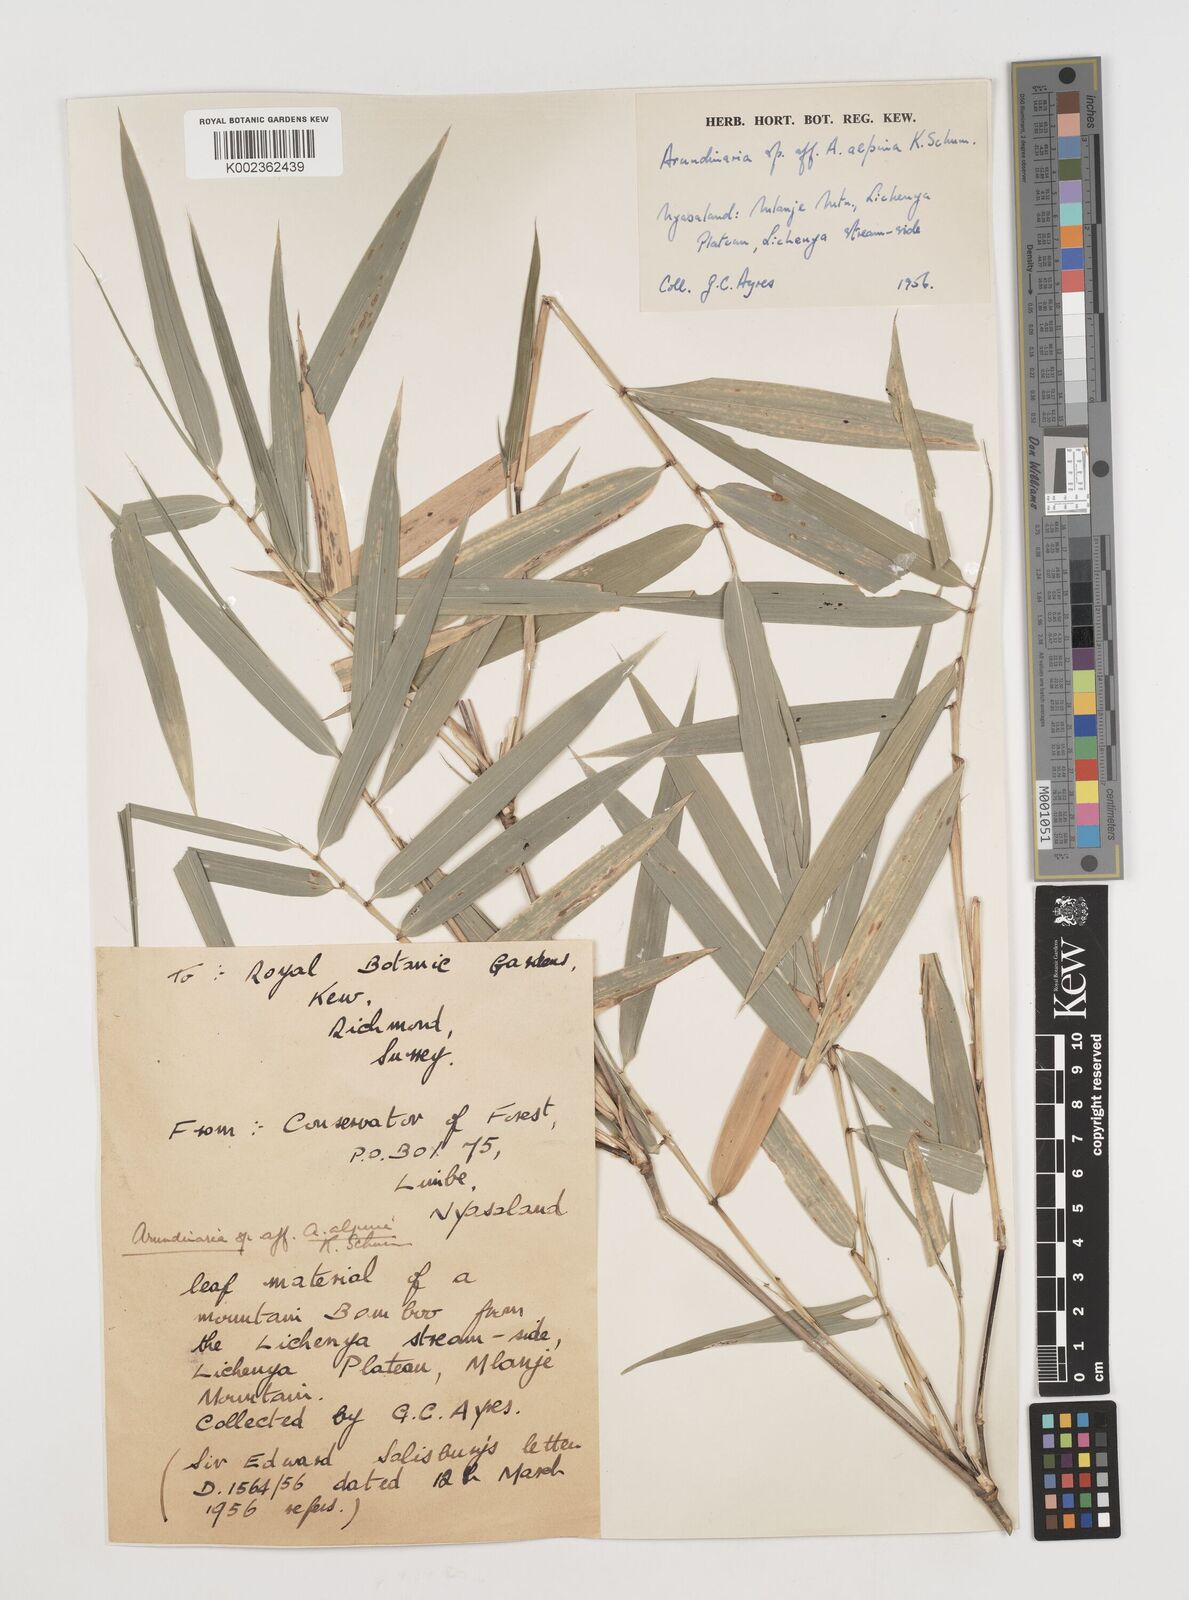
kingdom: Plantae
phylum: Tracheophyta
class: Liliopsida
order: Poales
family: Poaceae
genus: Oldeania
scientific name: Oldeania
